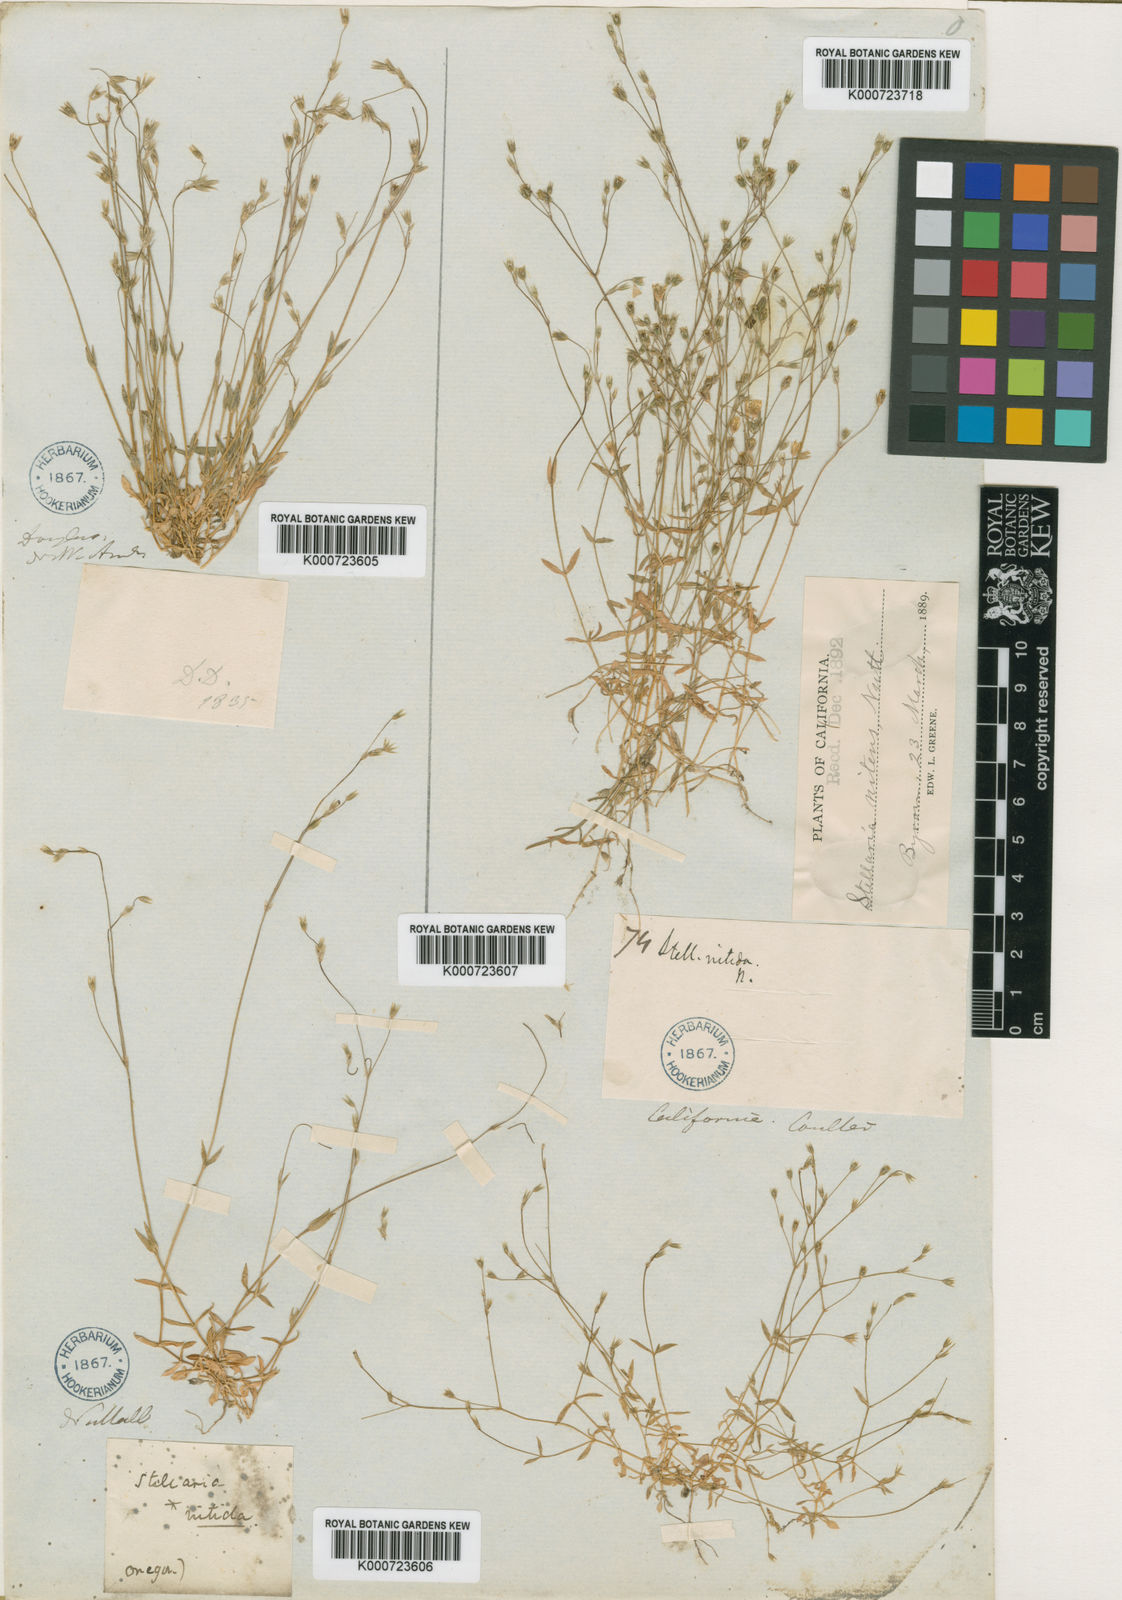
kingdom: Plantae
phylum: Tracheophyta
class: Magnoliopsida
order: Caryophyllales
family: Caryophyllaceae
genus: Stellaria
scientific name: Stellaria nitens
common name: Shining starwort
